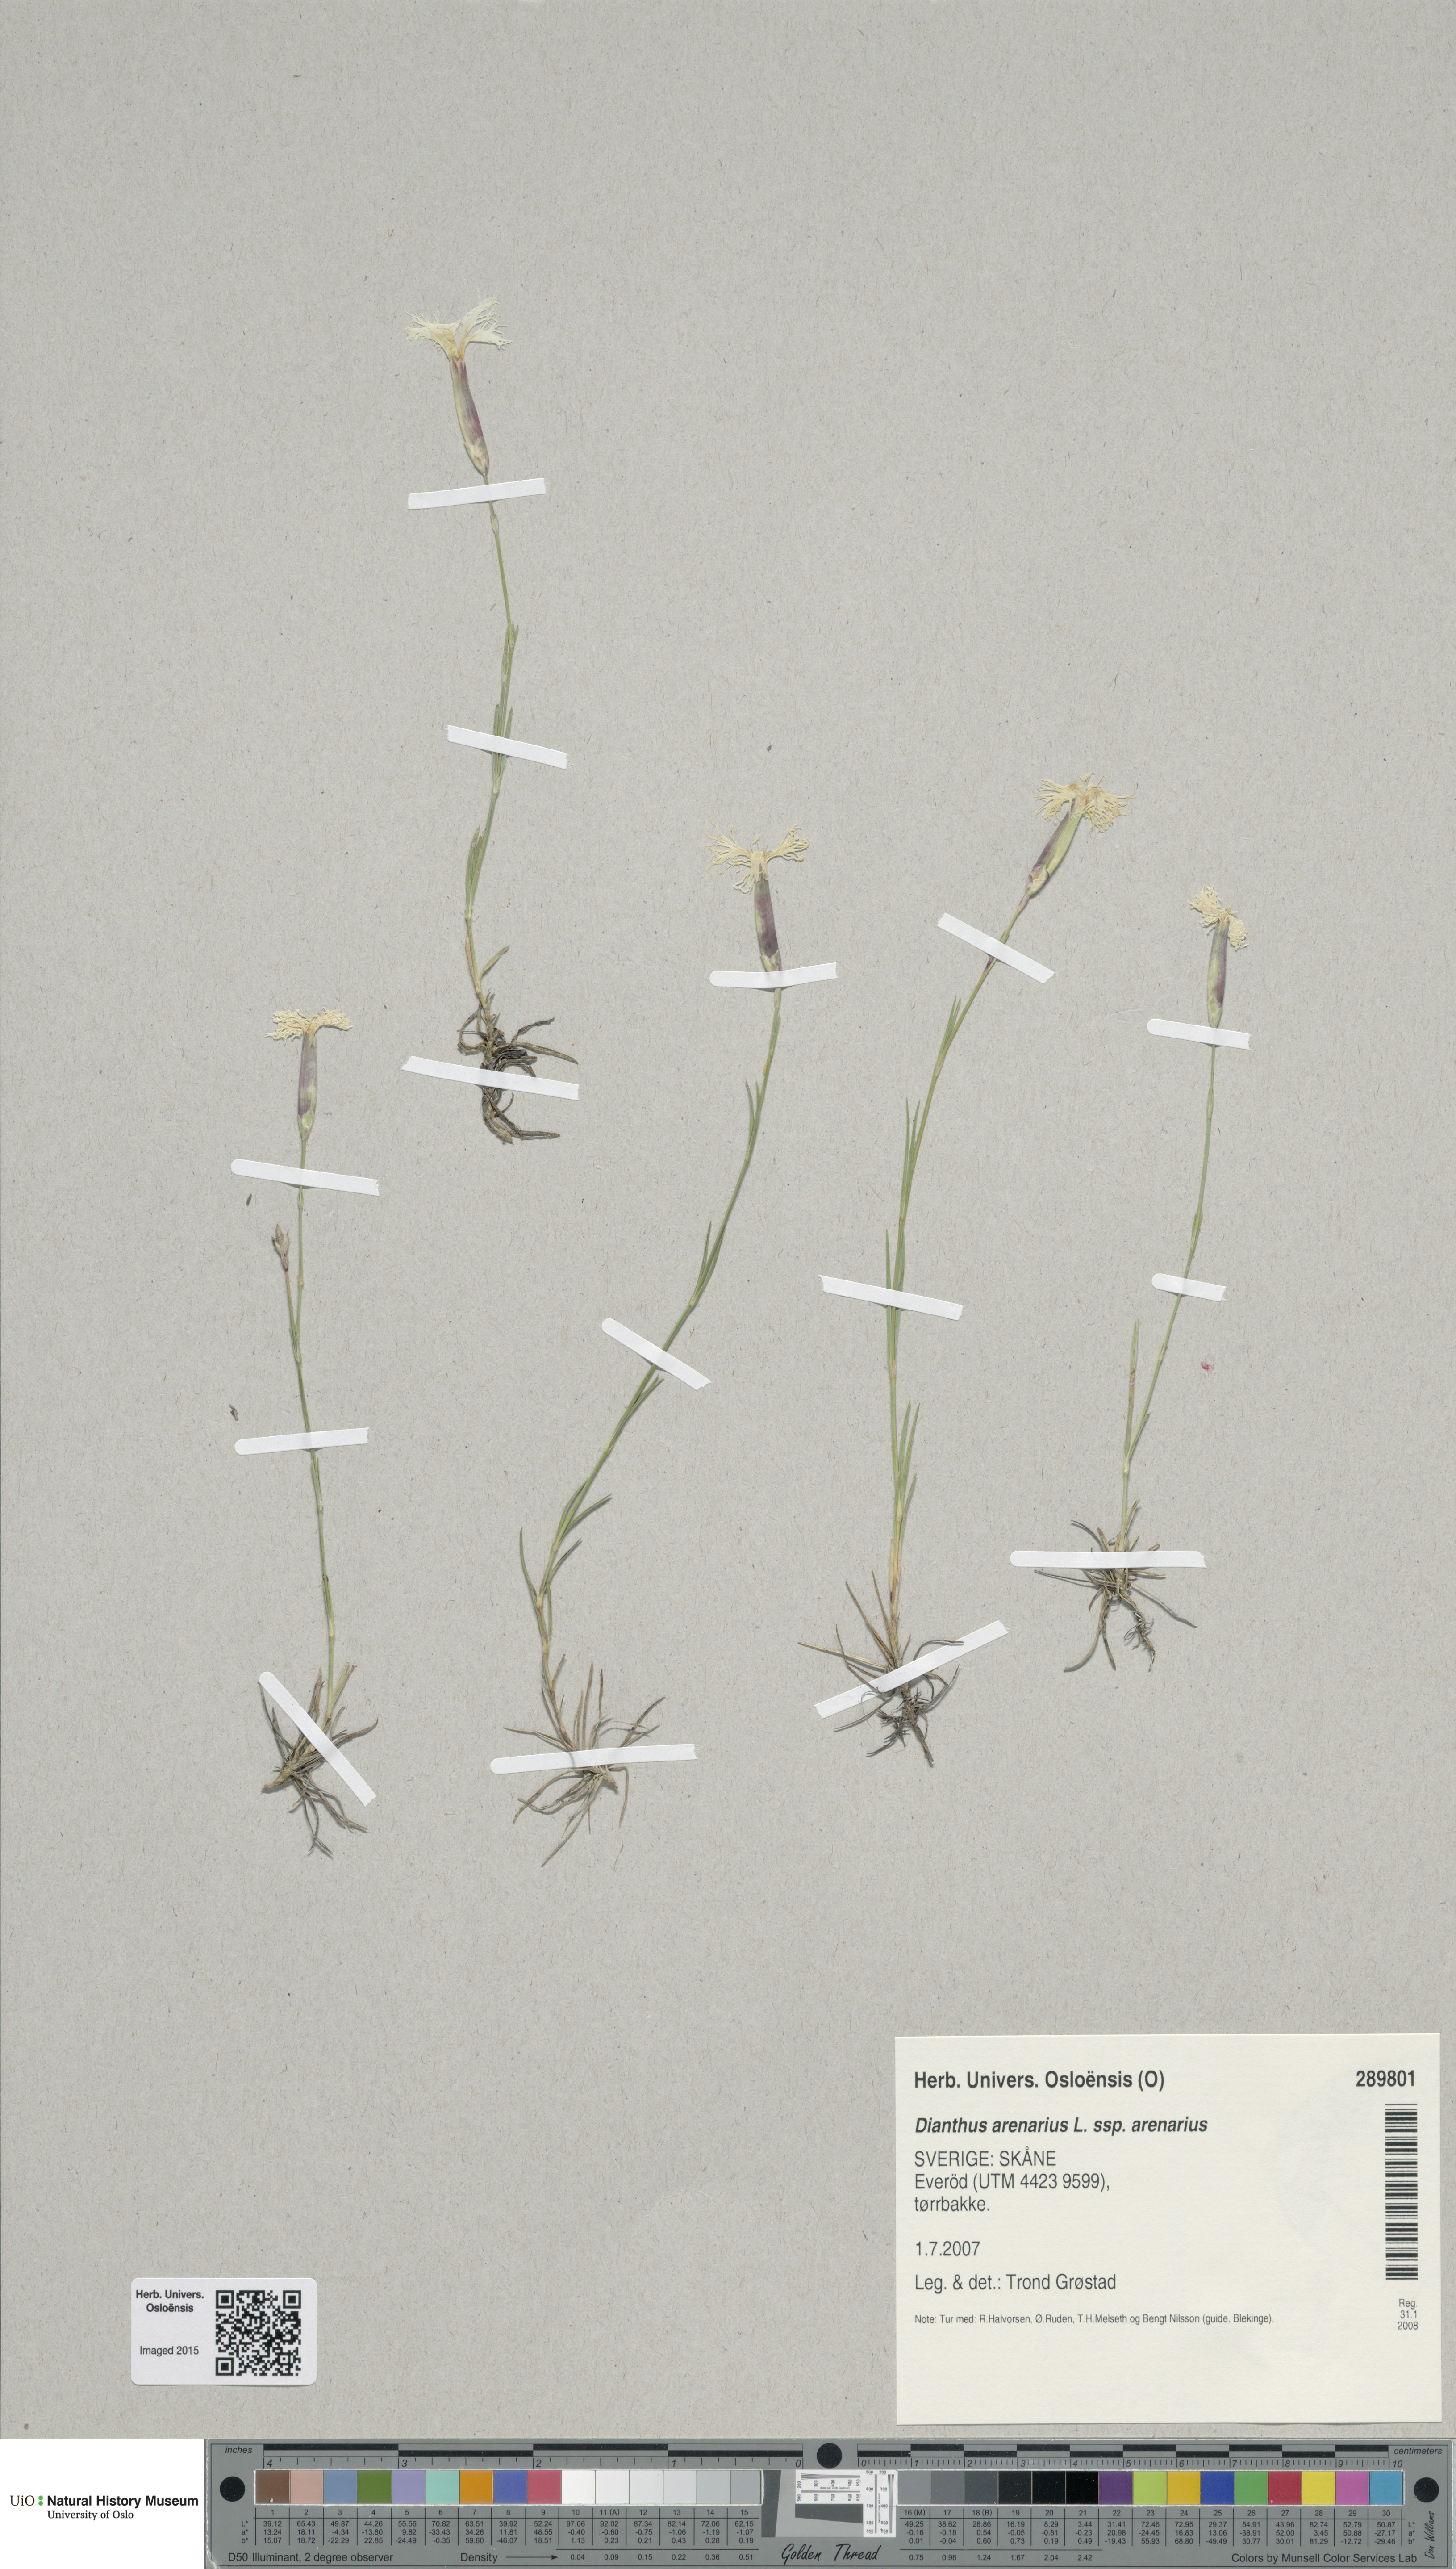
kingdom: Plantae
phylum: Tracheophyta
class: Magnoliopsida
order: Caryophyllales
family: Caryophyllaceae
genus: Dianthus
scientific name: Dianthus arenarius
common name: Stone pink
